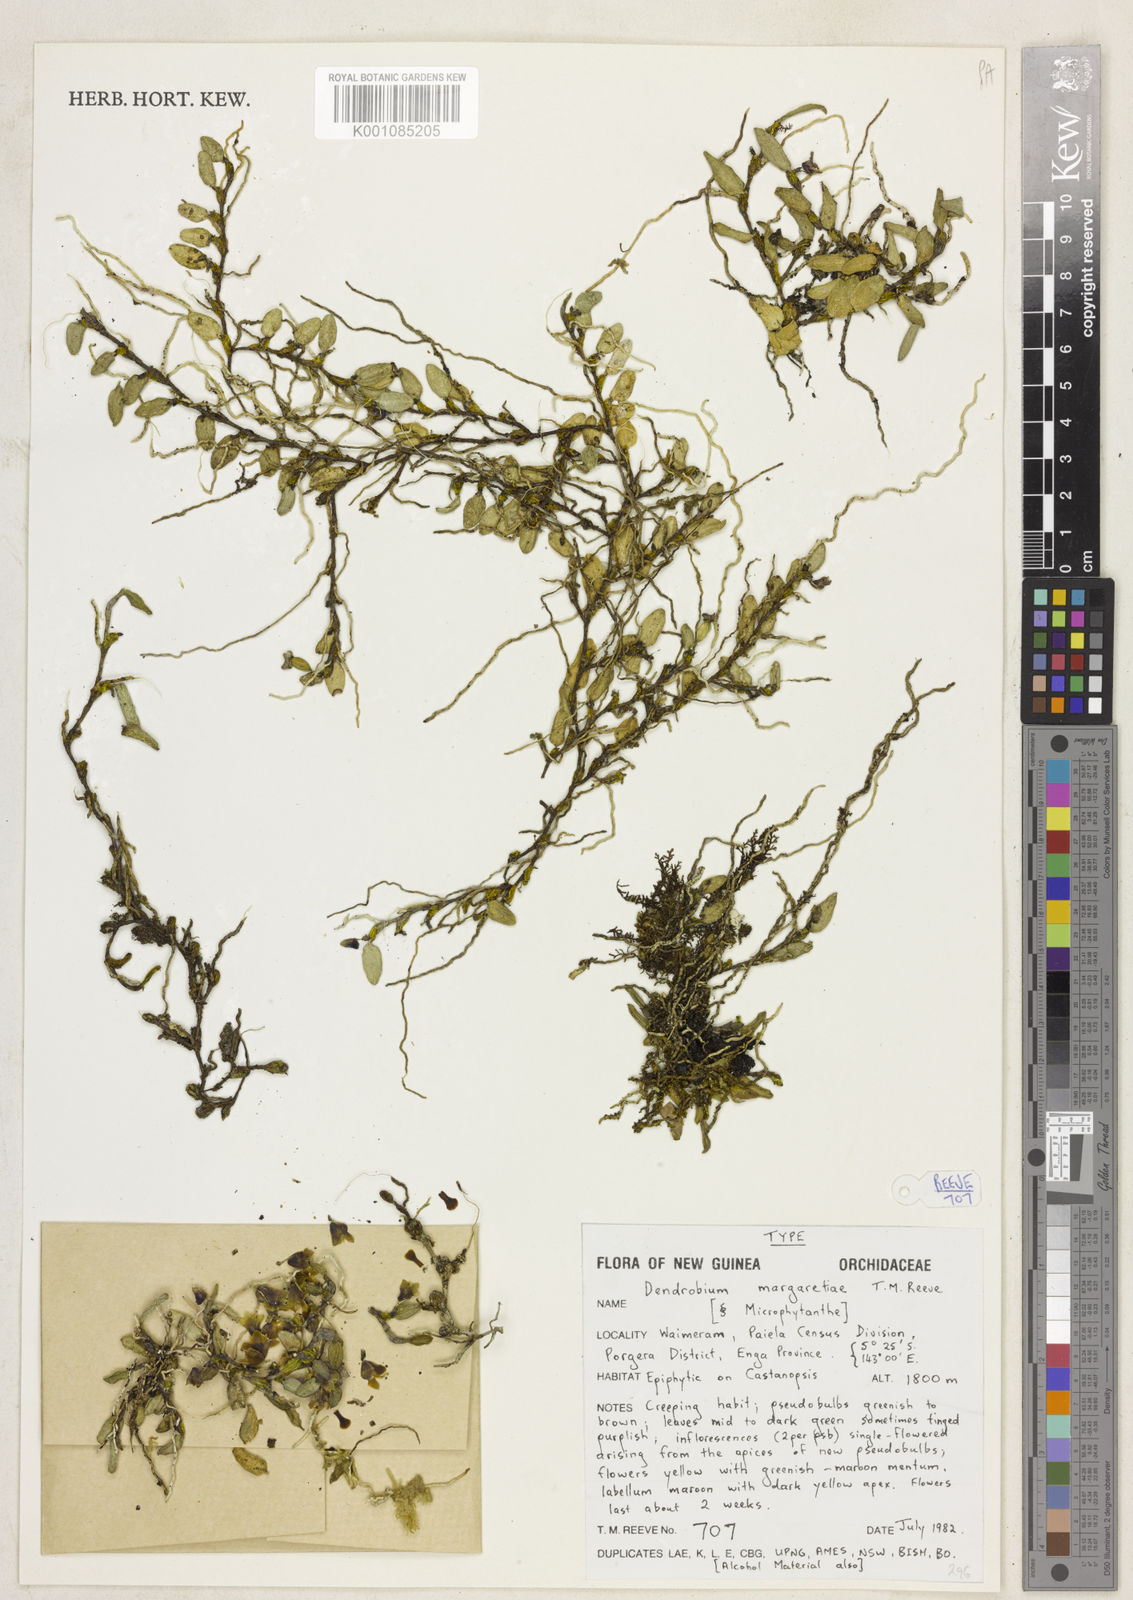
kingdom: Plantae
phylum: Tracheophyta
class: Liliopsida
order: Asparagales
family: Orchidaceae
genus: Dendrobium
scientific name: Dendrobium
